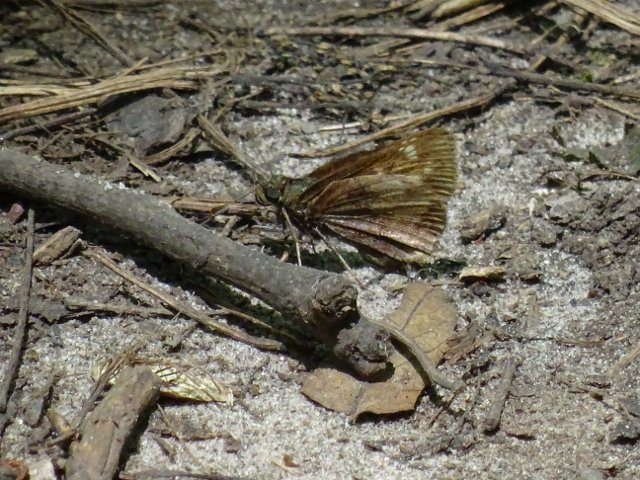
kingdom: Animalia
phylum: Arthropoda
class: Insecta
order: Lepidoptera
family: Hesperiidae
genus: Lon
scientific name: Lon hobomok
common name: Hobomok Skipper
